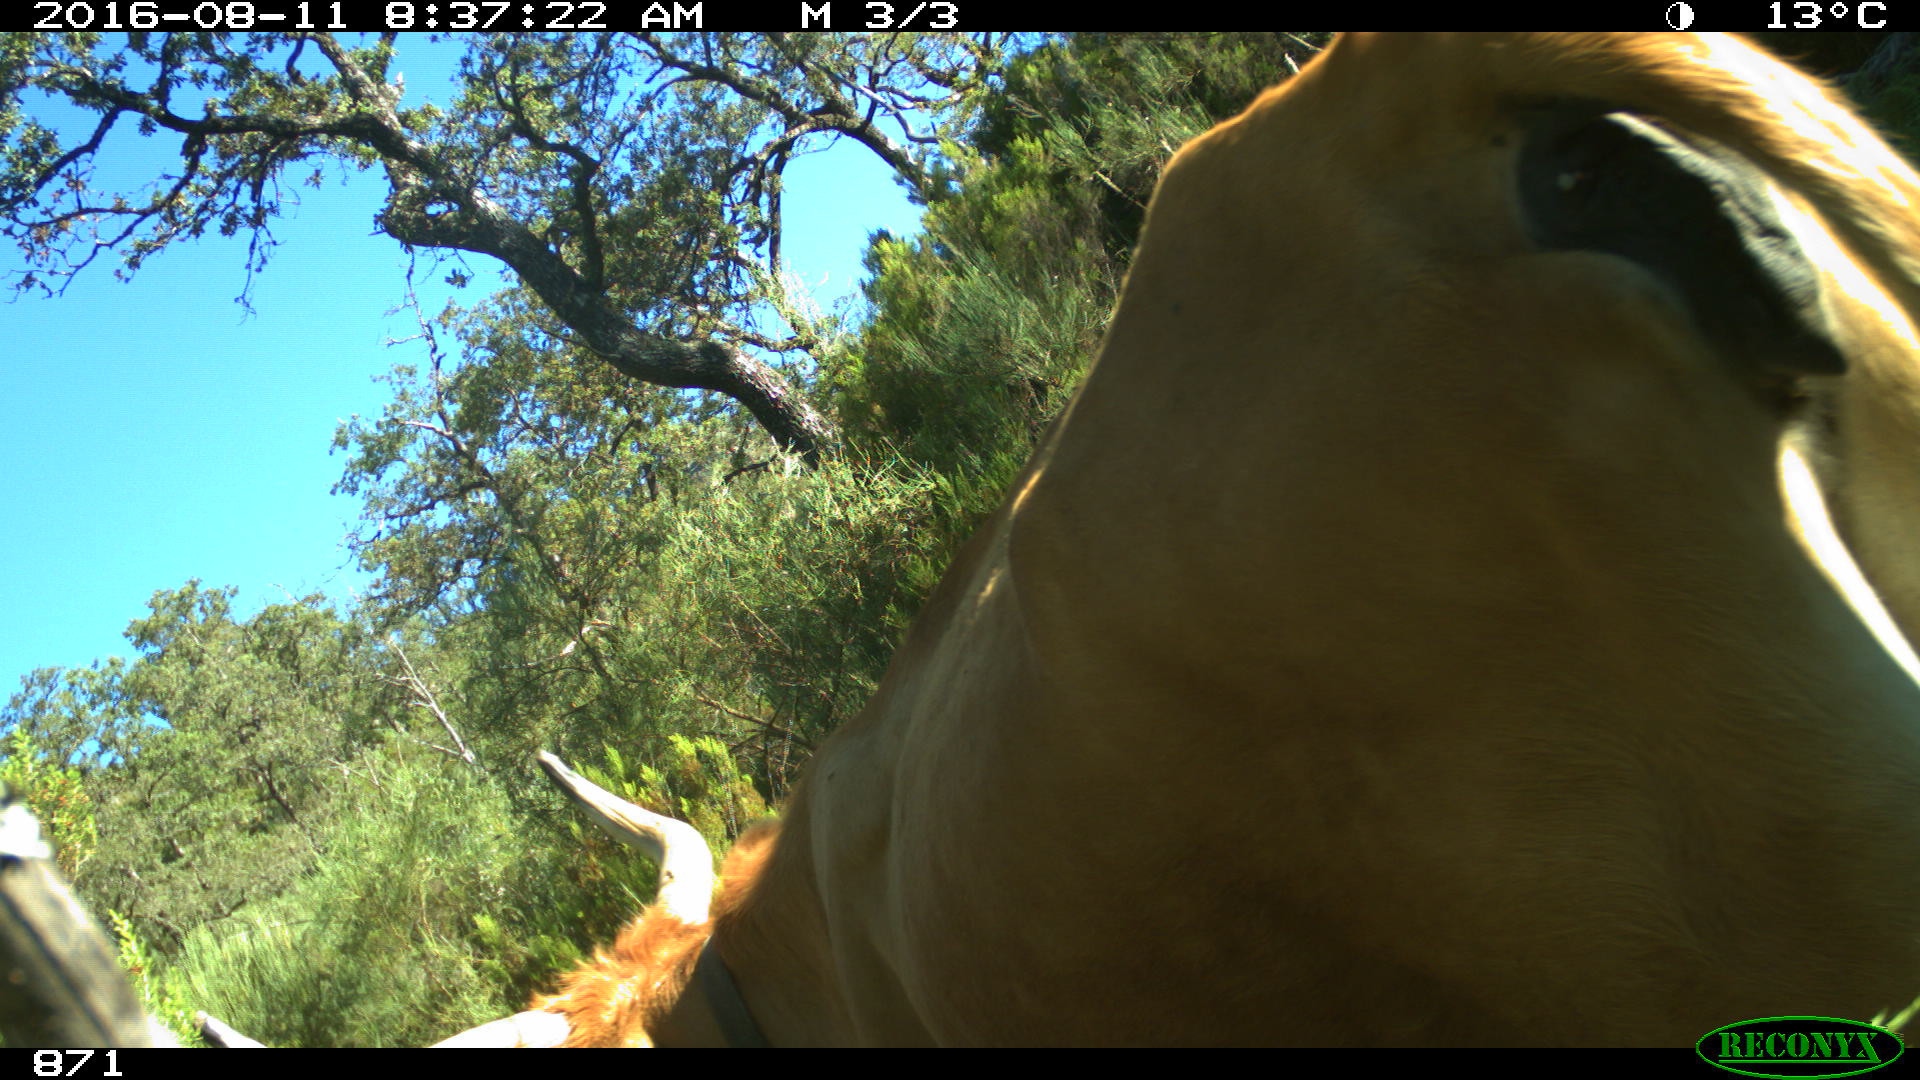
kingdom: Animalia
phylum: Chordata
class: Mammalia
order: Artiodactyla
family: Bovidae
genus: Bos
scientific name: Bos taurus
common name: Domesticated cattle
